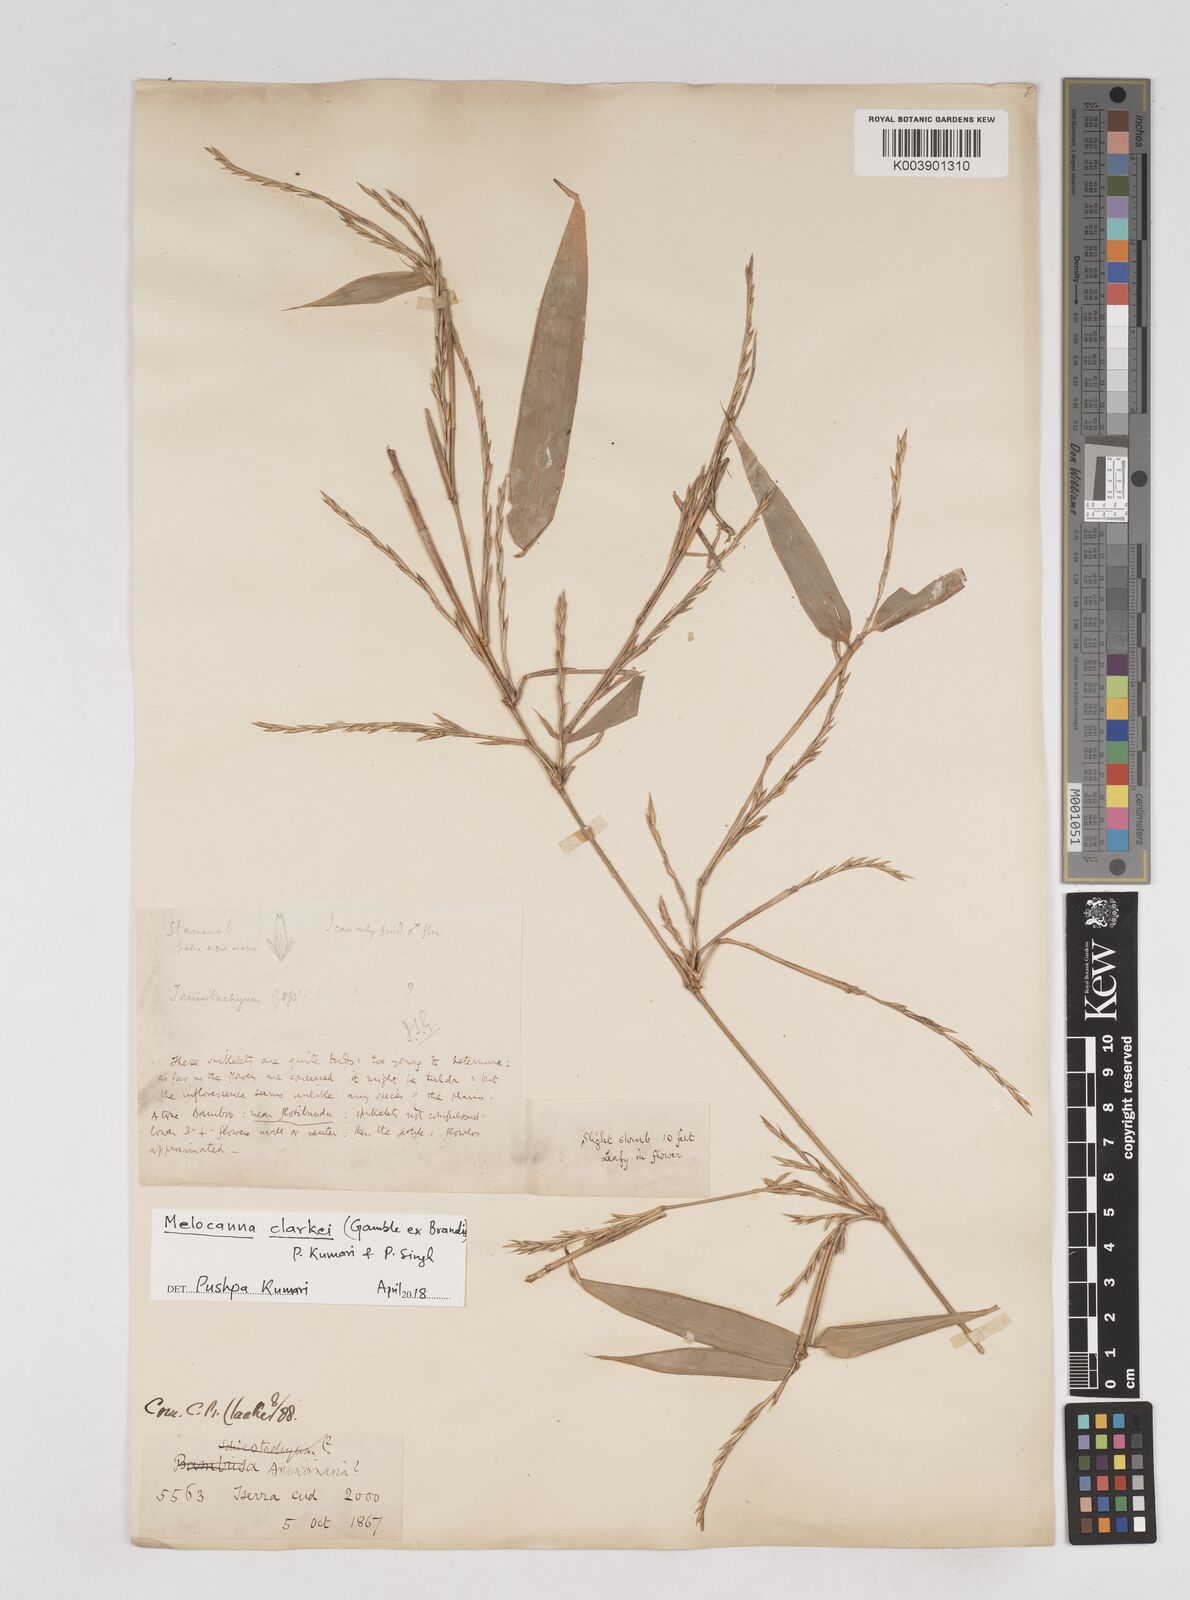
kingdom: Plantae
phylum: Tracheophyta
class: Liliopsida
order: Poales
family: Poaceae
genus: Melocanna
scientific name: Melocanna clarkei
